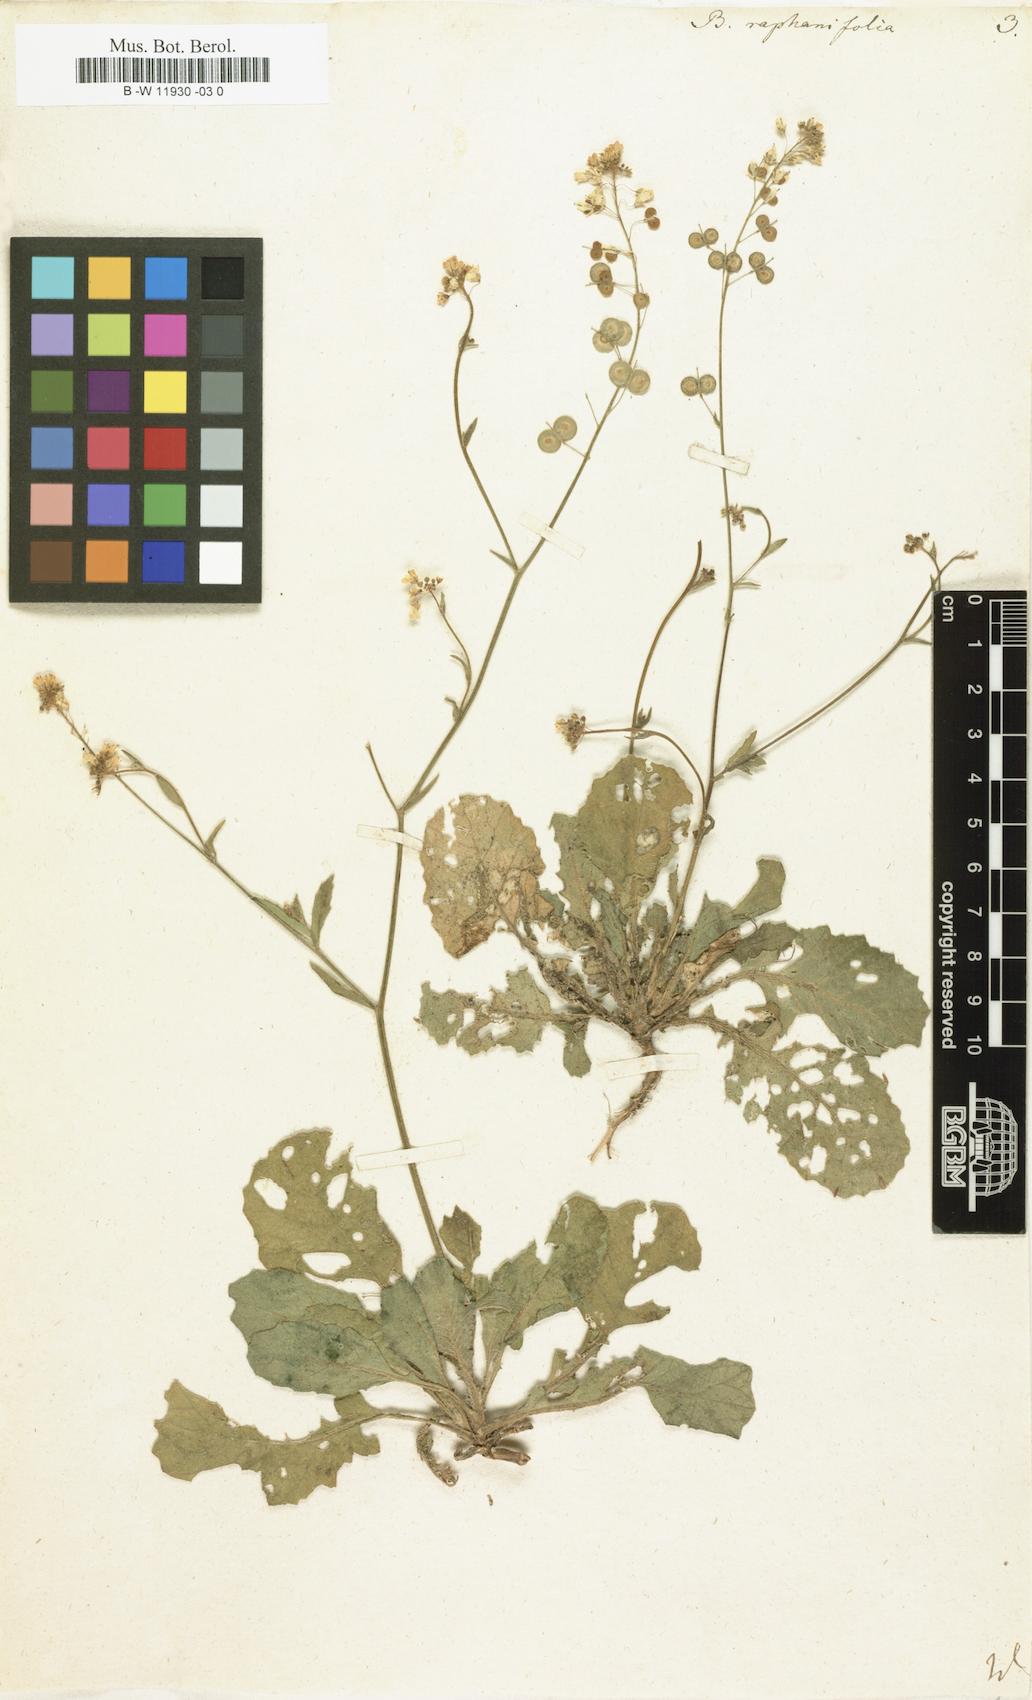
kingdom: Plantae
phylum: Tracheophyta
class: Magnoliopsida
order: Brassicales
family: Brassicaceae
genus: Biscutella
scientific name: Biscutella raphanifolia
